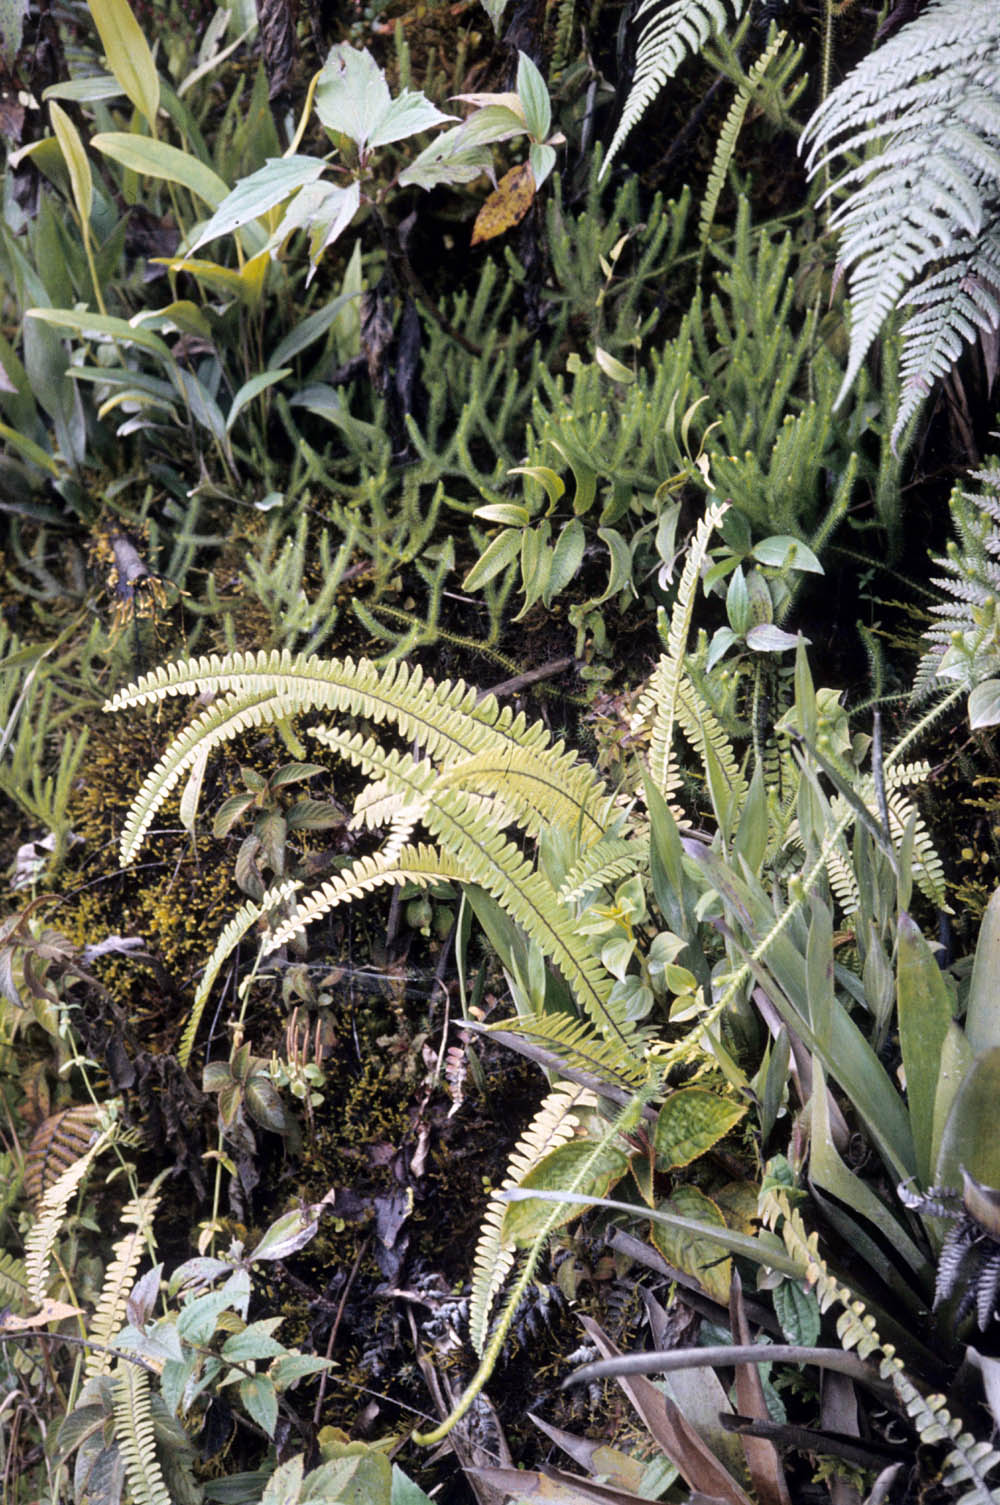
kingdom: Plantae
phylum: Tracheophyta
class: Polypodiopsida
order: Polypodiales
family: Nephrolepidaceae
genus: Nephrolepis
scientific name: Nephrolepis cordifolia
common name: Narrow swordfern
